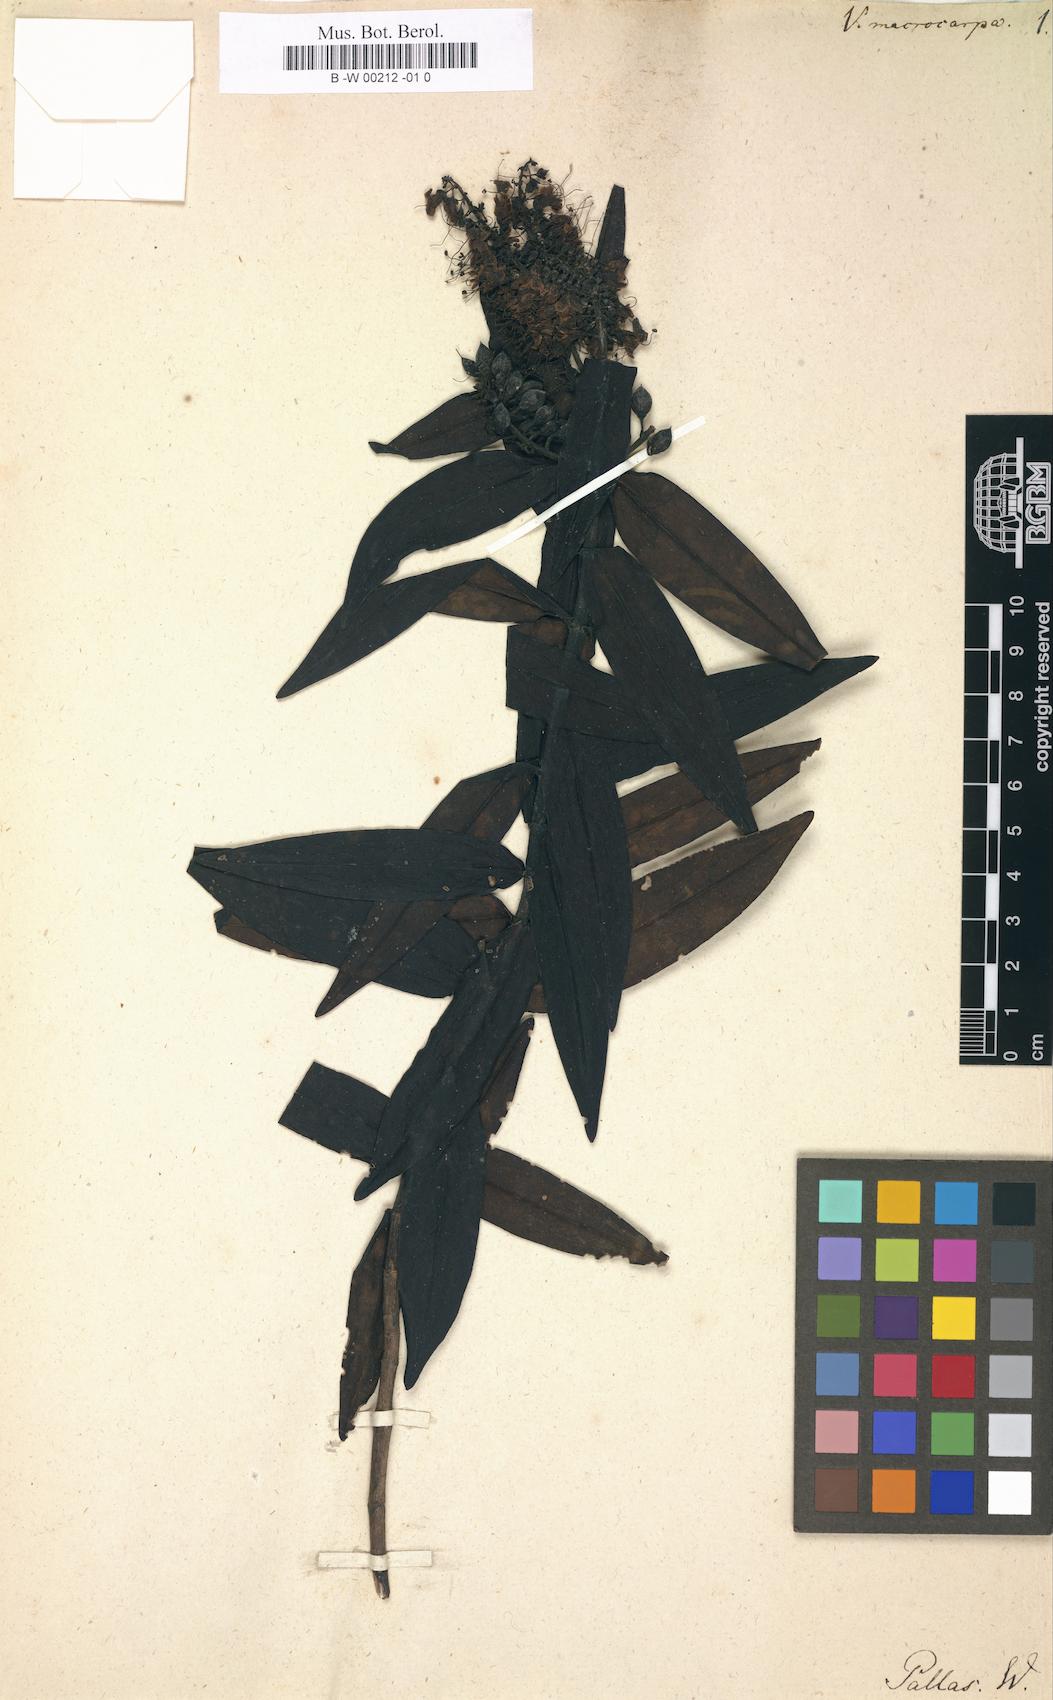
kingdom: Plantae
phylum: Tracheophyta
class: Magnoliopsida
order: Lamiales
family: Plantaginaceae
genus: Veronica
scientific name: Veronica macrocarpa
